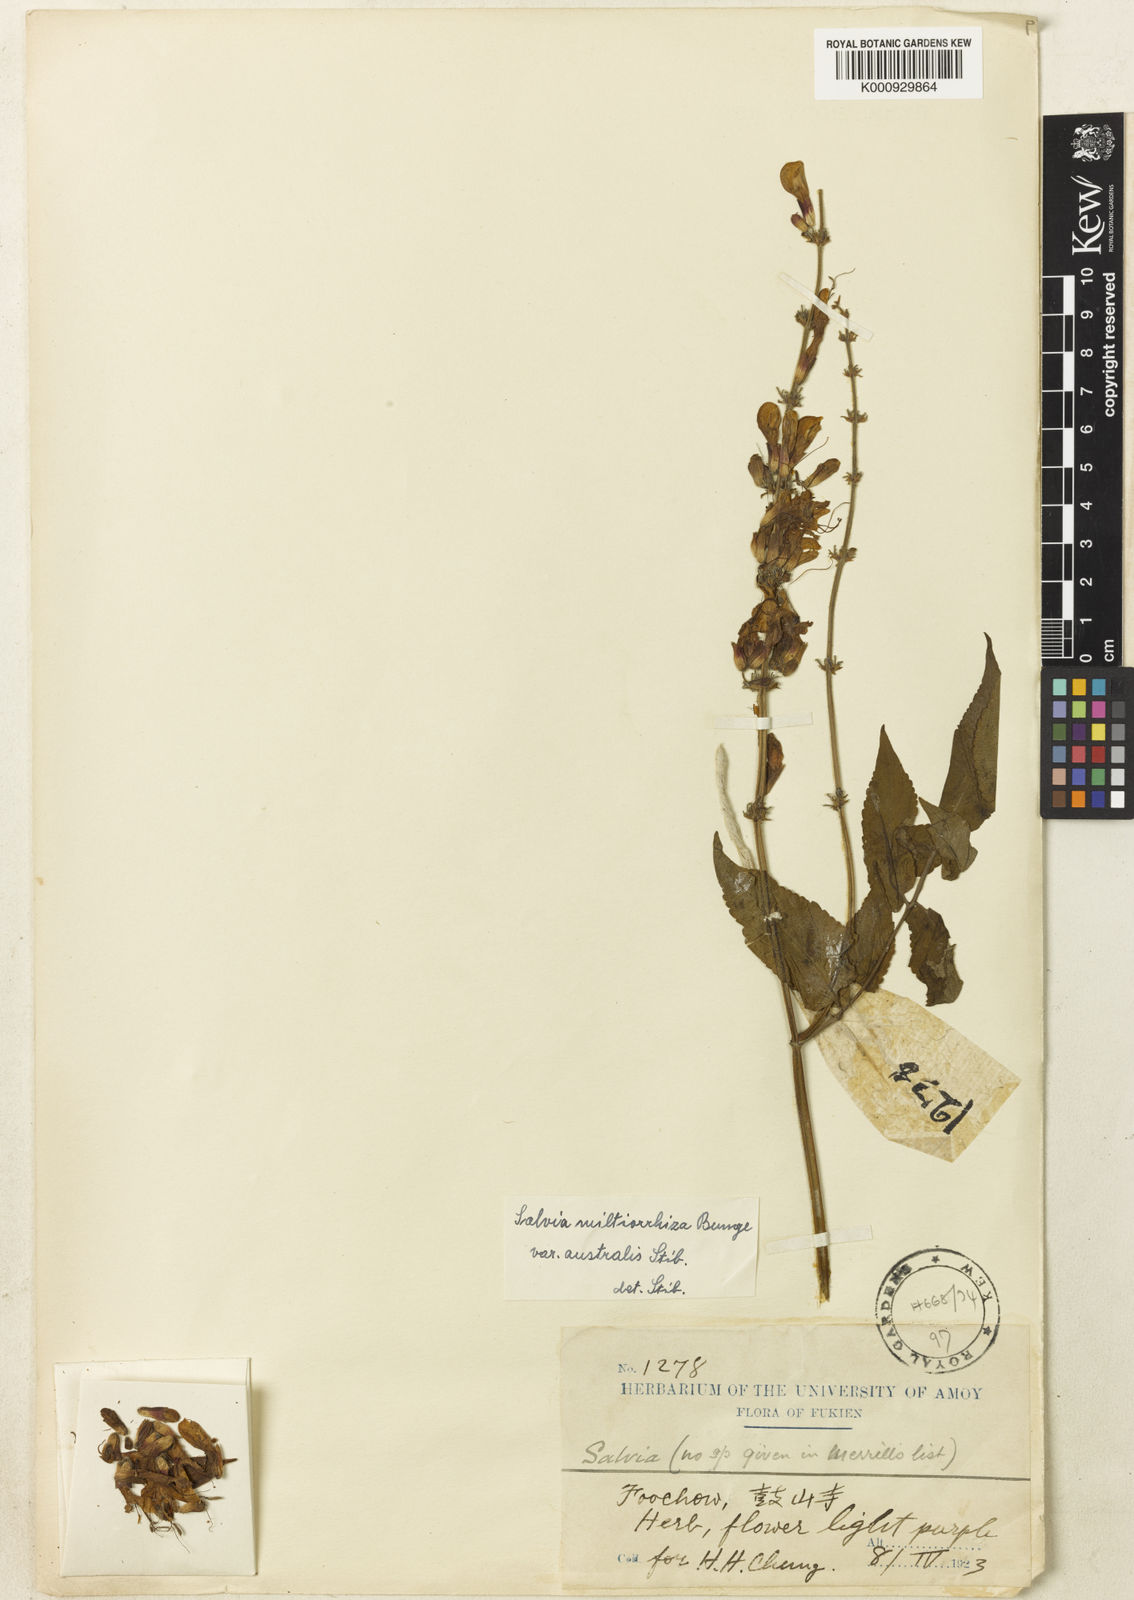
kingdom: Plantae
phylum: Tracheophyta
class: Magnoliopsida
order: Lamiales
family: Lamiaceae
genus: Salvia
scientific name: Salvia miltiorrhiza
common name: Redroot sage
